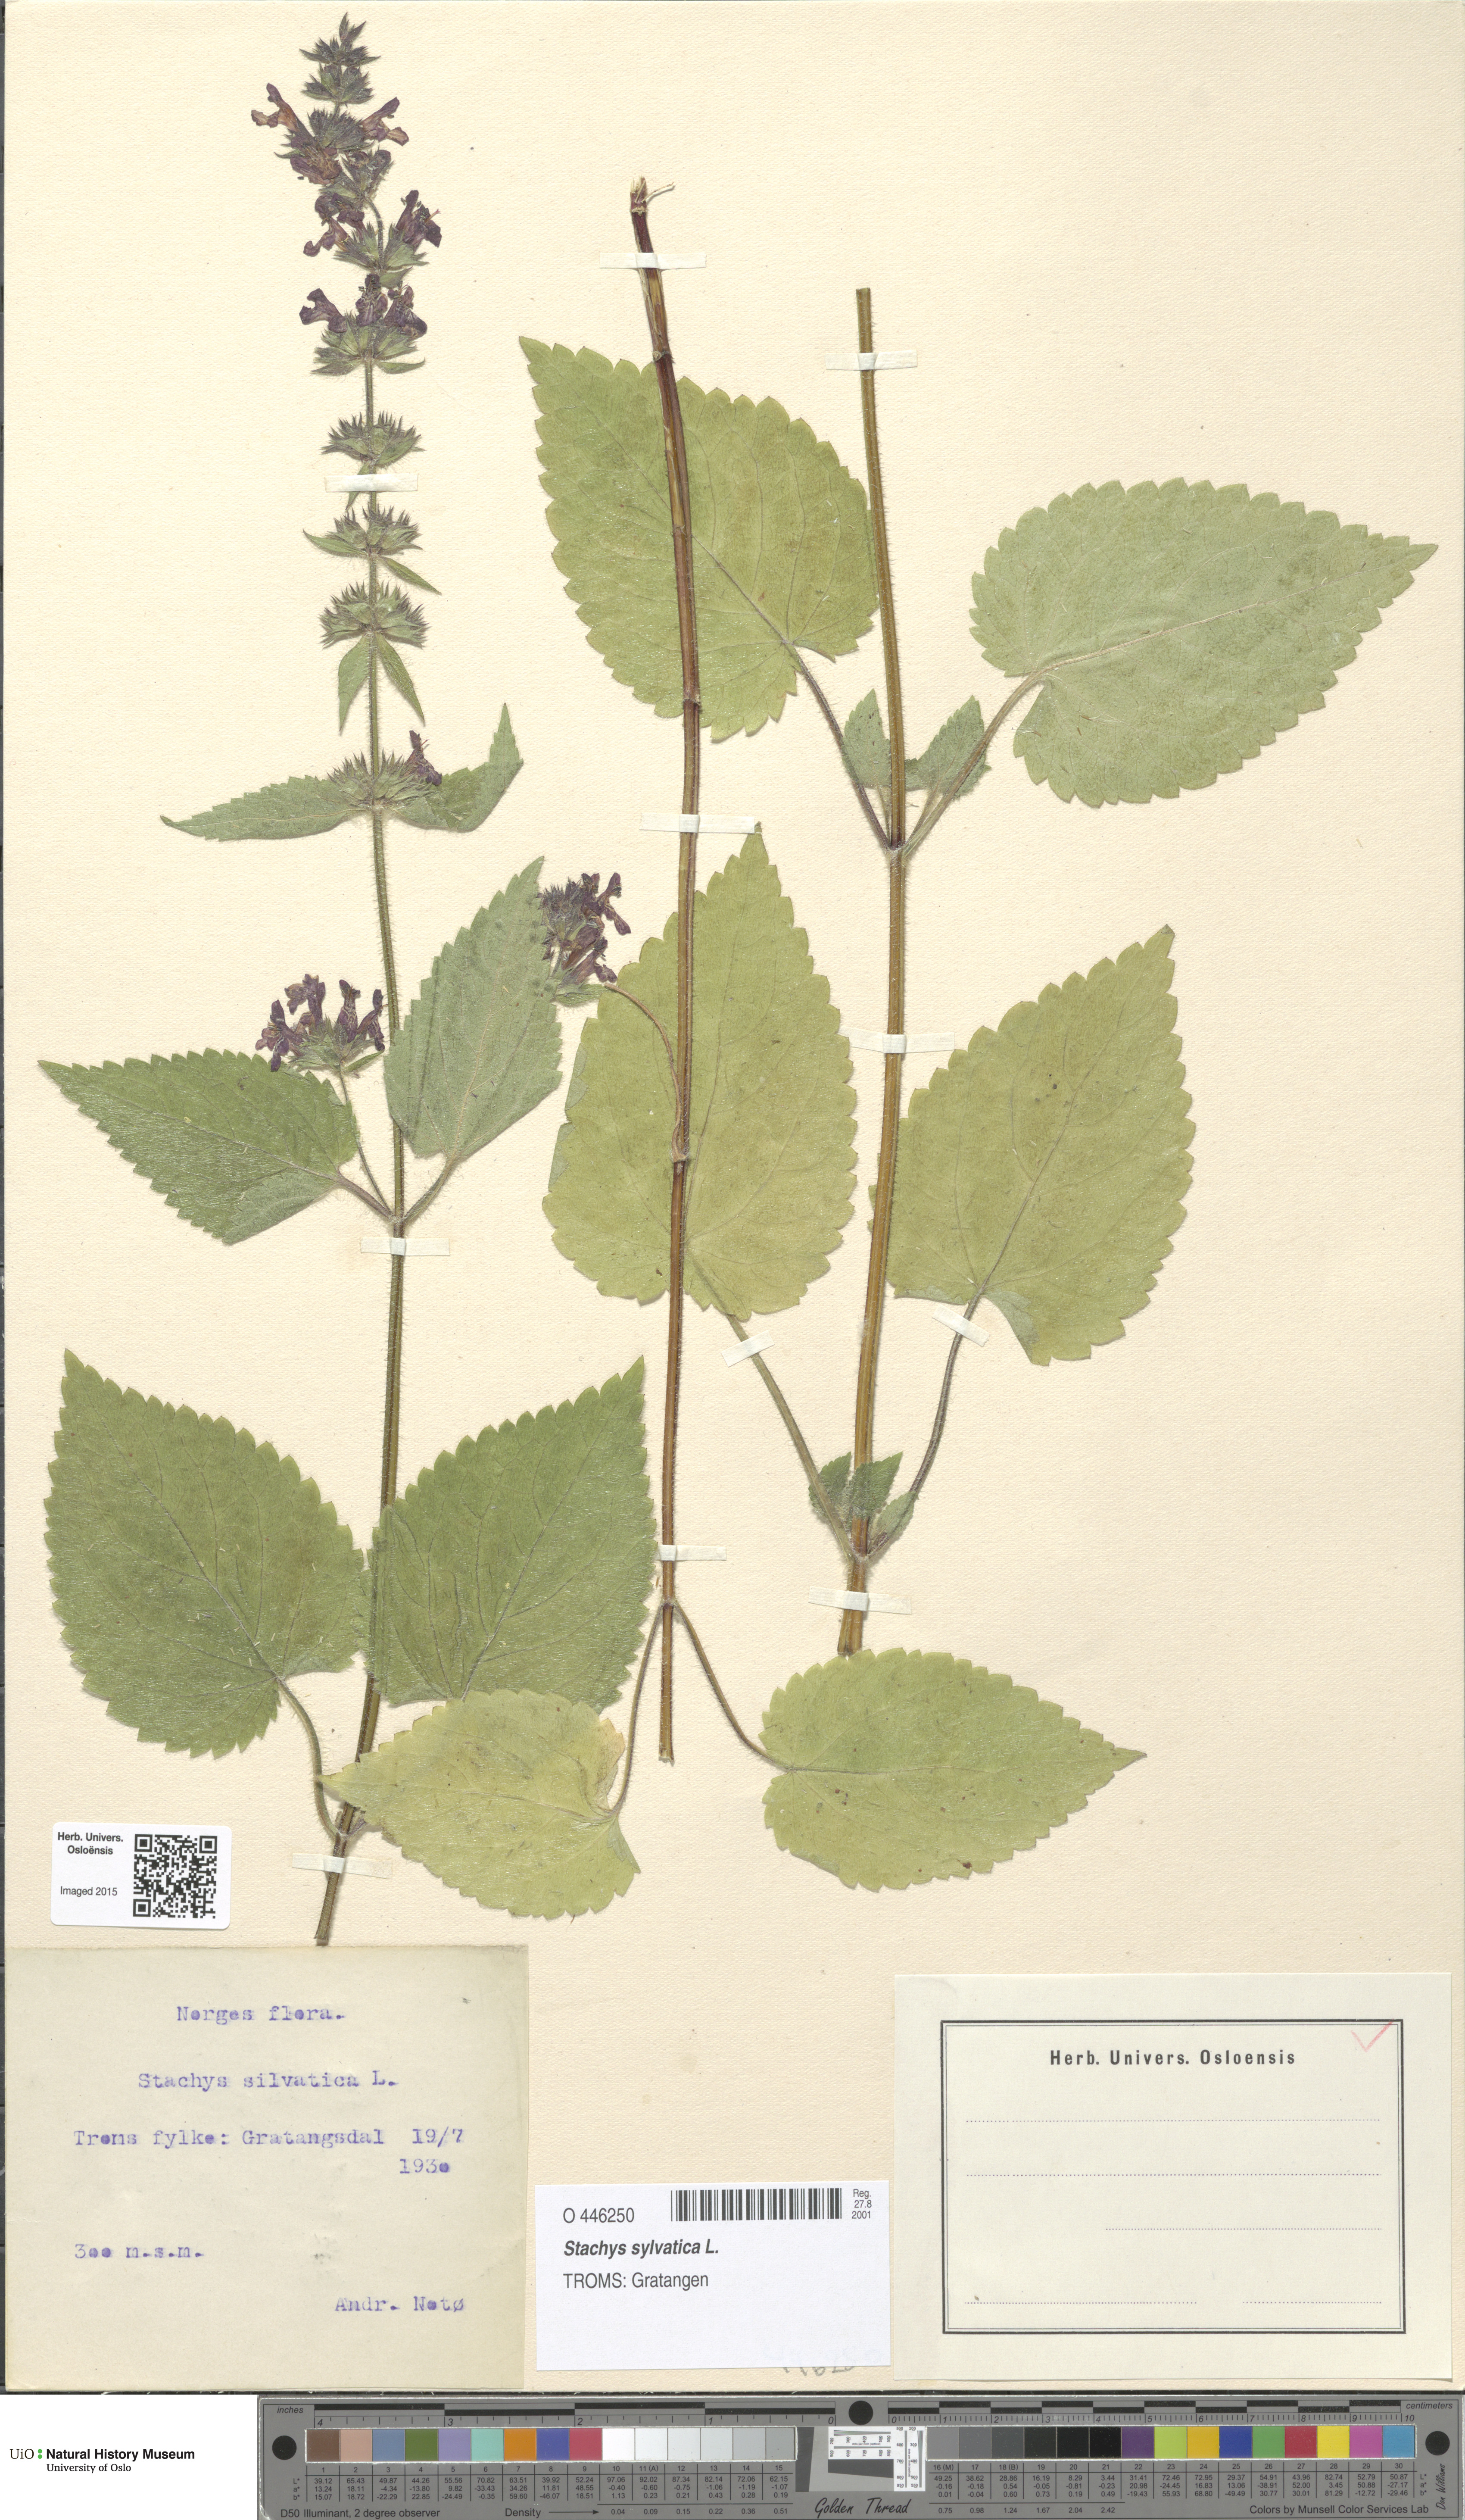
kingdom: Plantae
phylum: Tracheophyta
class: Magnoliopsida
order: Lamiales
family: Lamiaceae
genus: Stachys
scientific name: Stachys sylvatica
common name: Hedge woundwort
